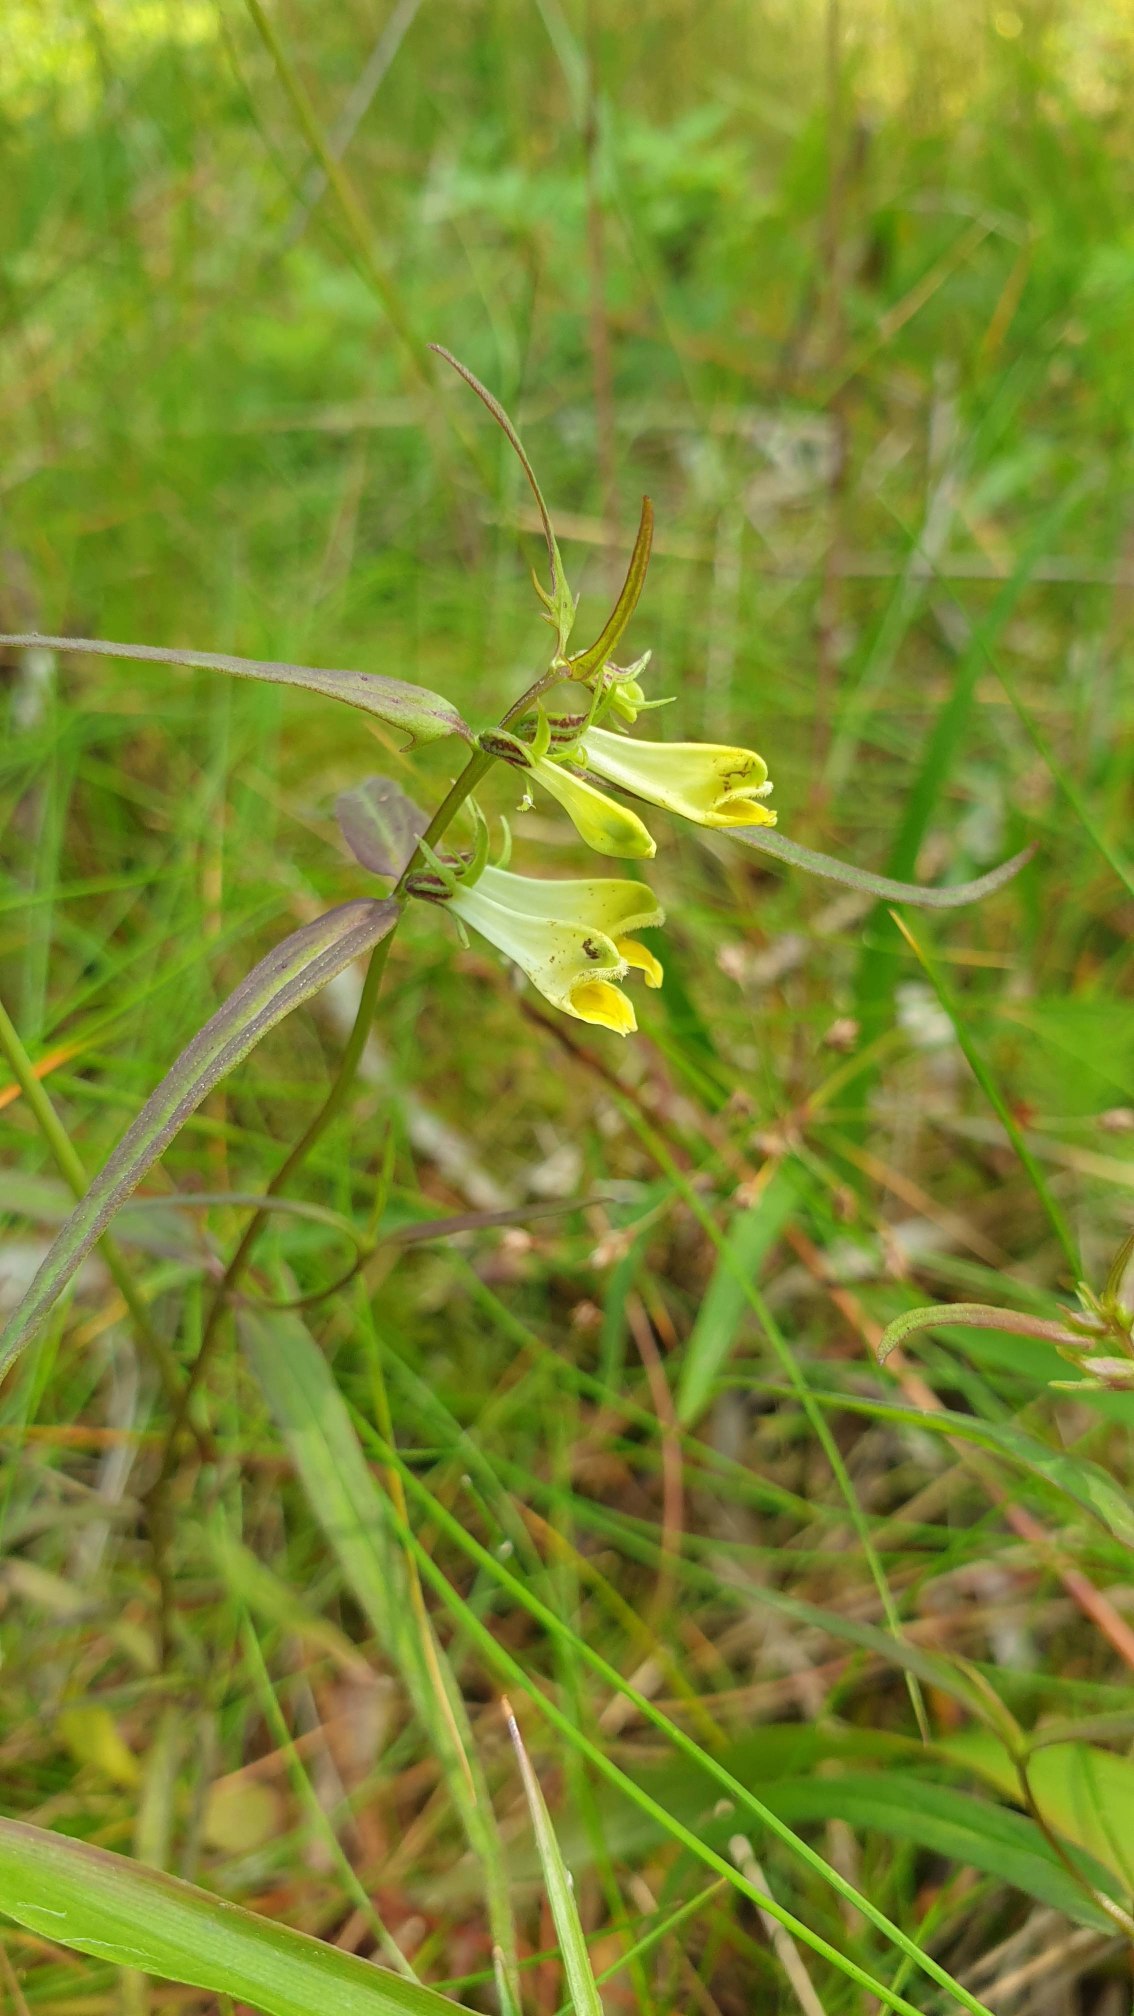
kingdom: Plantae
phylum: Tracheophyta
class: Magnoliopsida
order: Lamiales
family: Orobanchaceae
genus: Melampyrum
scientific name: Melampyrum pratense
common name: Almindelig kohvede
